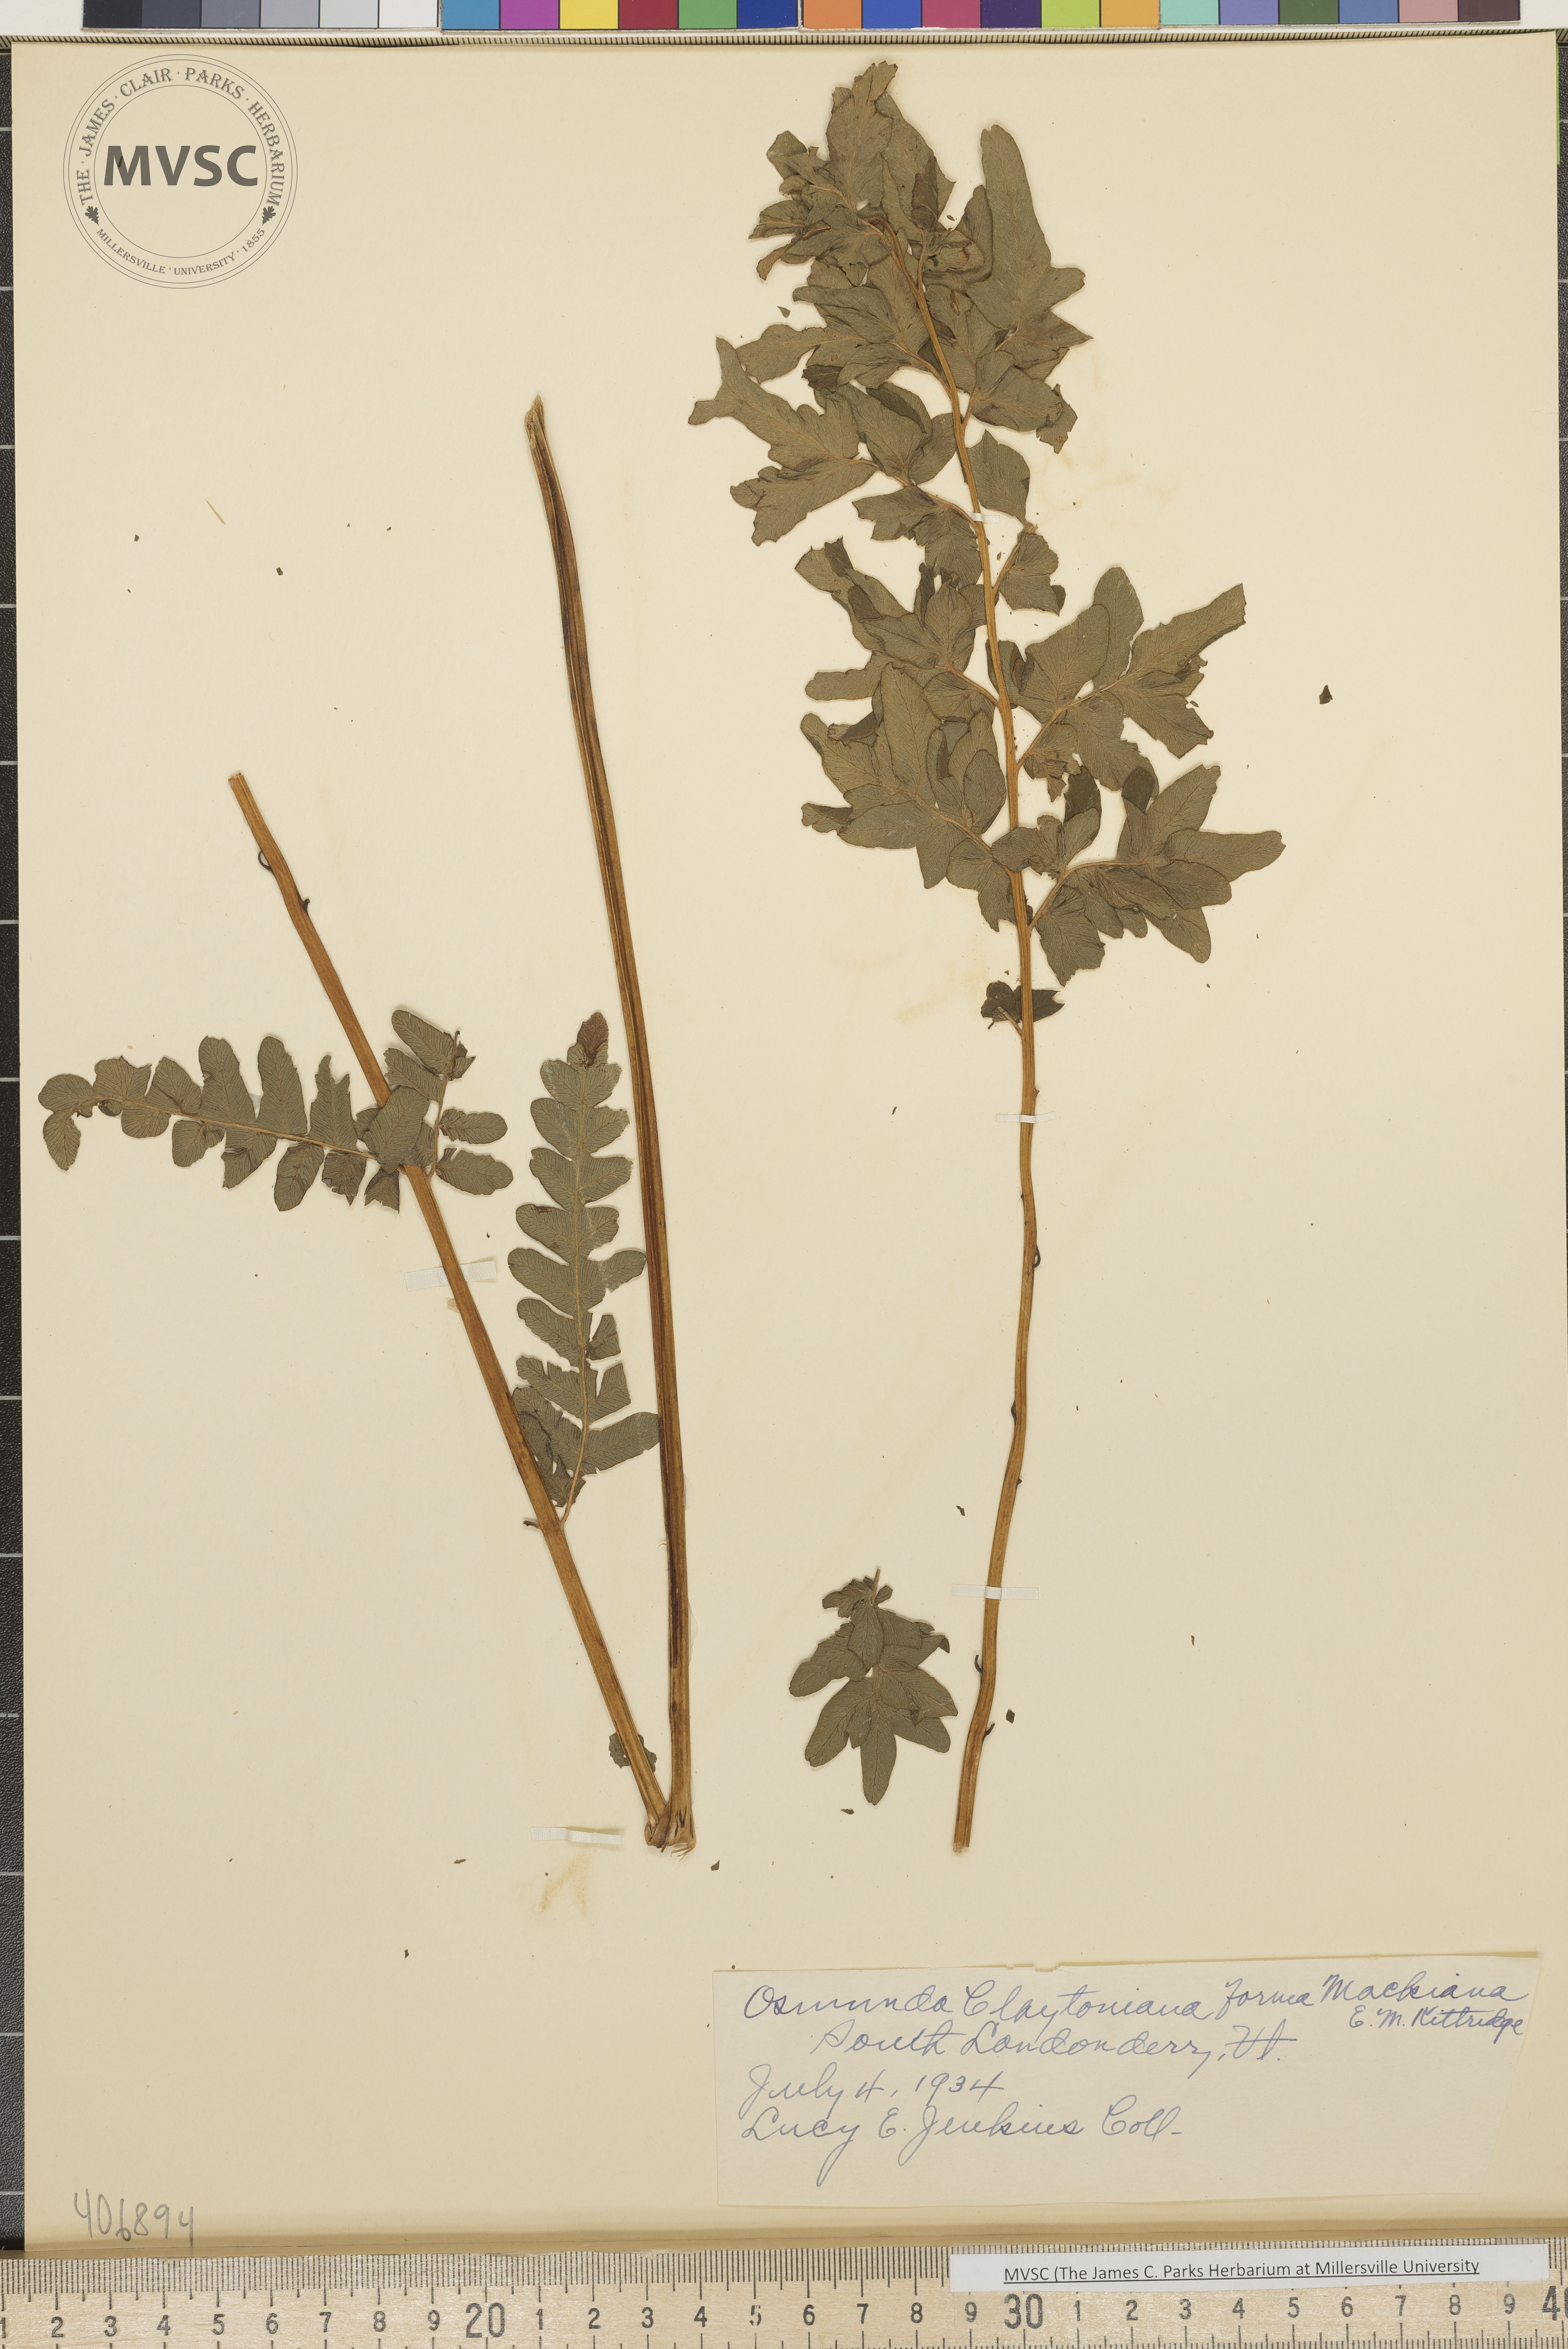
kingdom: Plantae
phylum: Tracheophyta
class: Polypodiopsida
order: Osmundales
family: Osmundaceae
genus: Claytosmunda
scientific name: Claytosmunda claytoniana
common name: Clayton's fern
